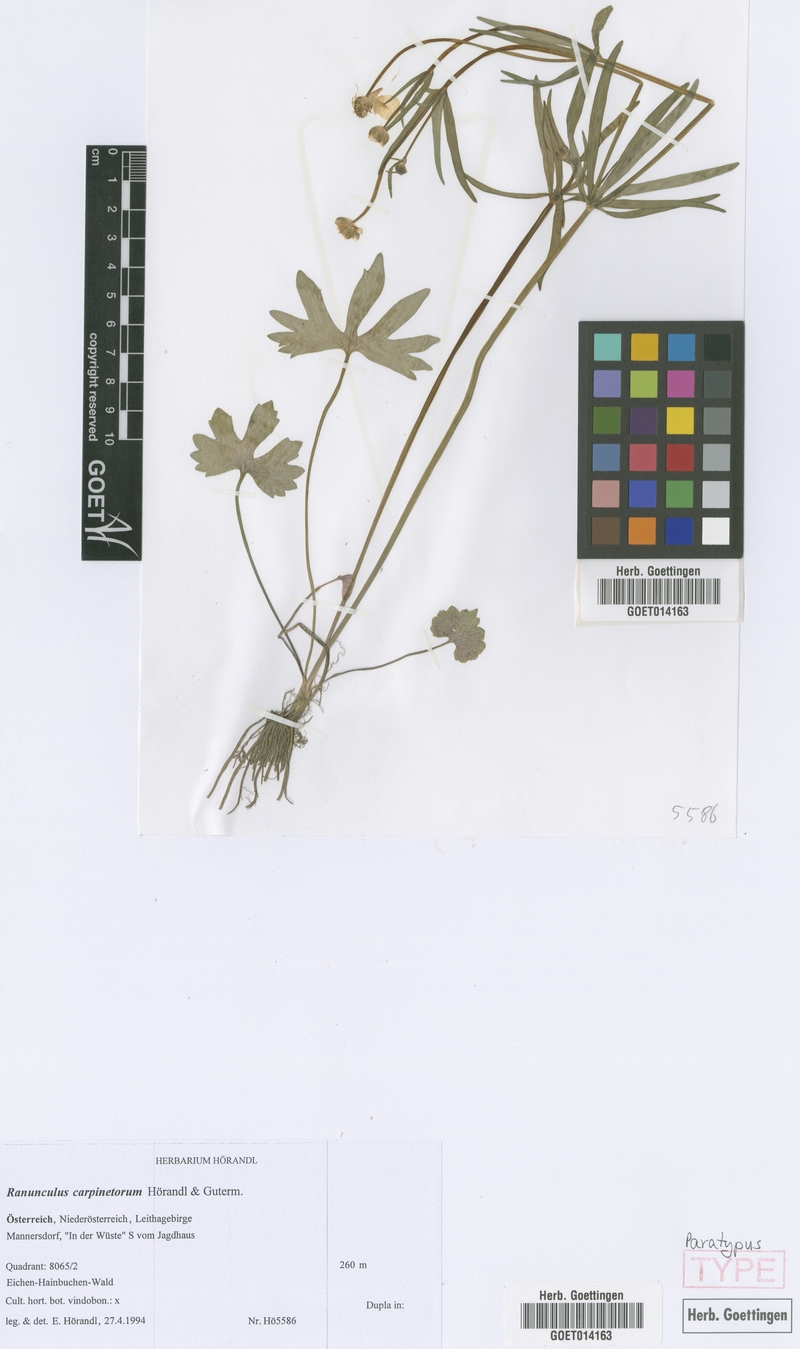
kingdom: Plantae
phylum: Tracheophyta
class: Magnoliopsida
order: Ranunculales
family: Ranunculaceae
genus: Ranunculus
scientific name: Ranunculus carpinetorum
